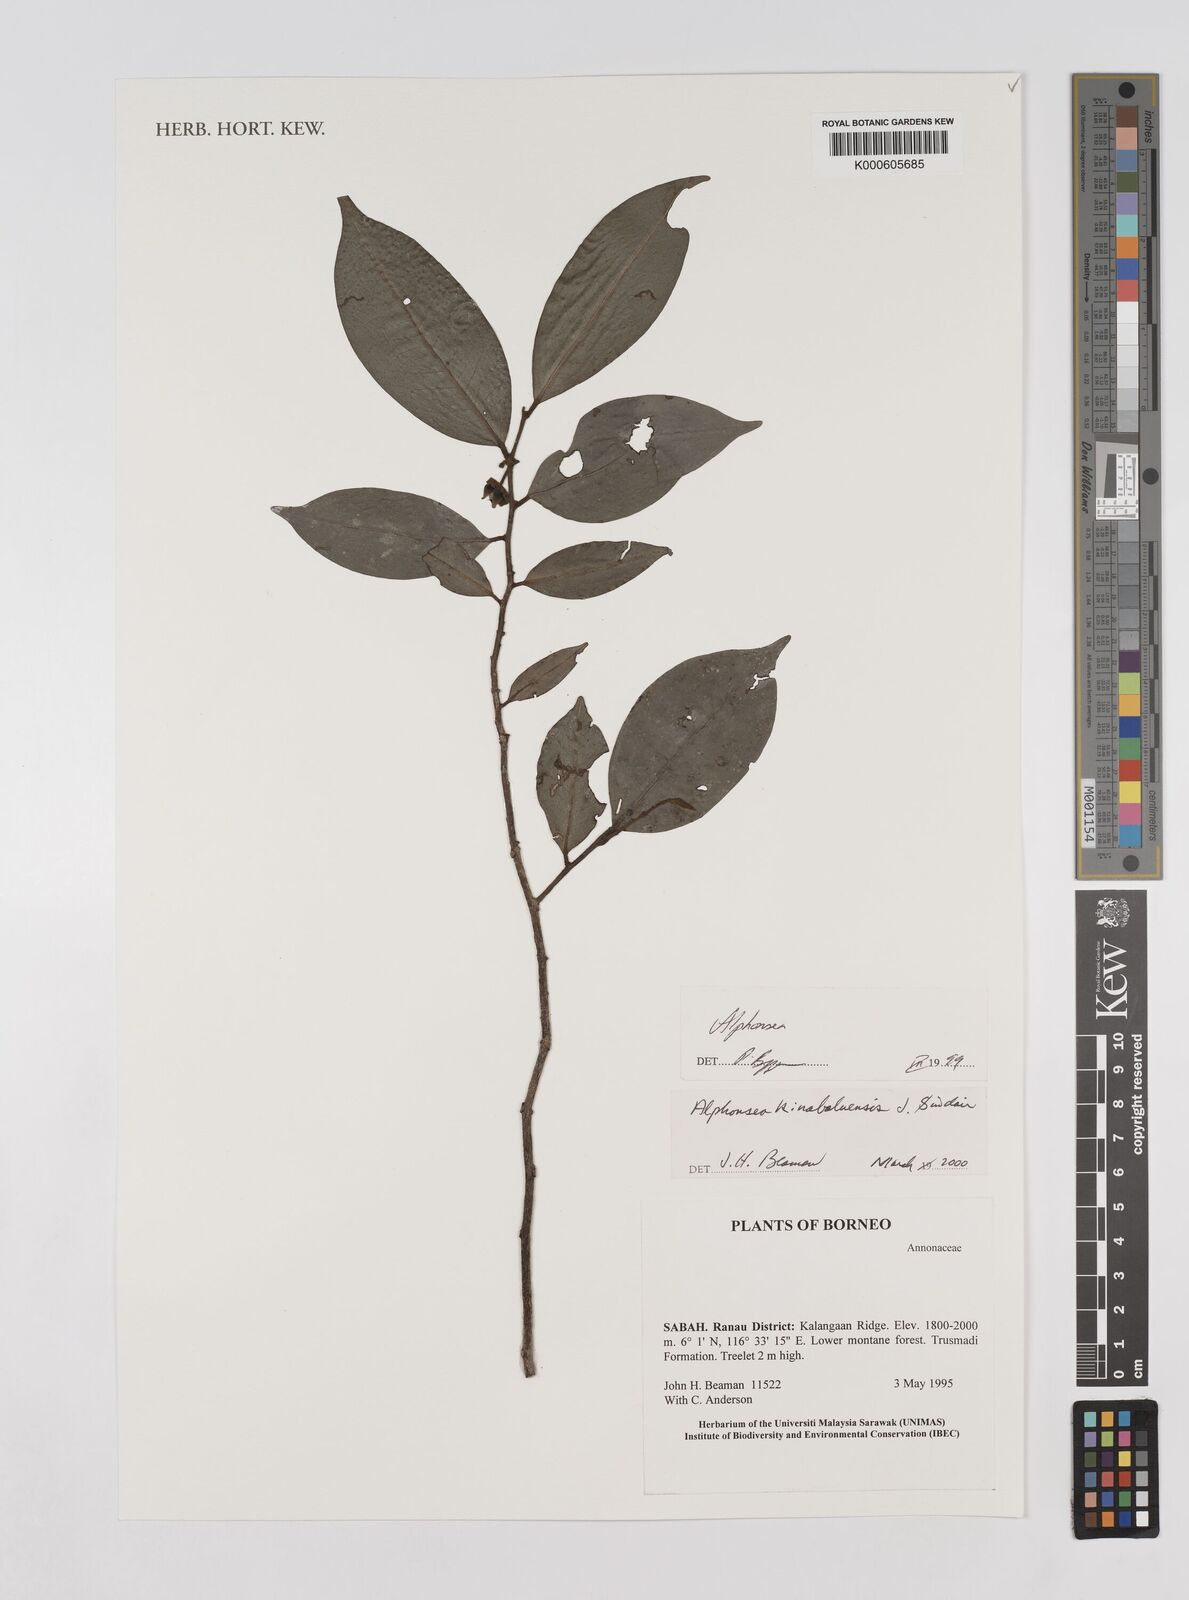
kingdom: Plantae
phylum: Tracheophyta
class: Magnoliopsida
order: Magnoliales
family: Annonaceae
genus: Alphonsea
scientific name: Alphonsea kinabaluensis
